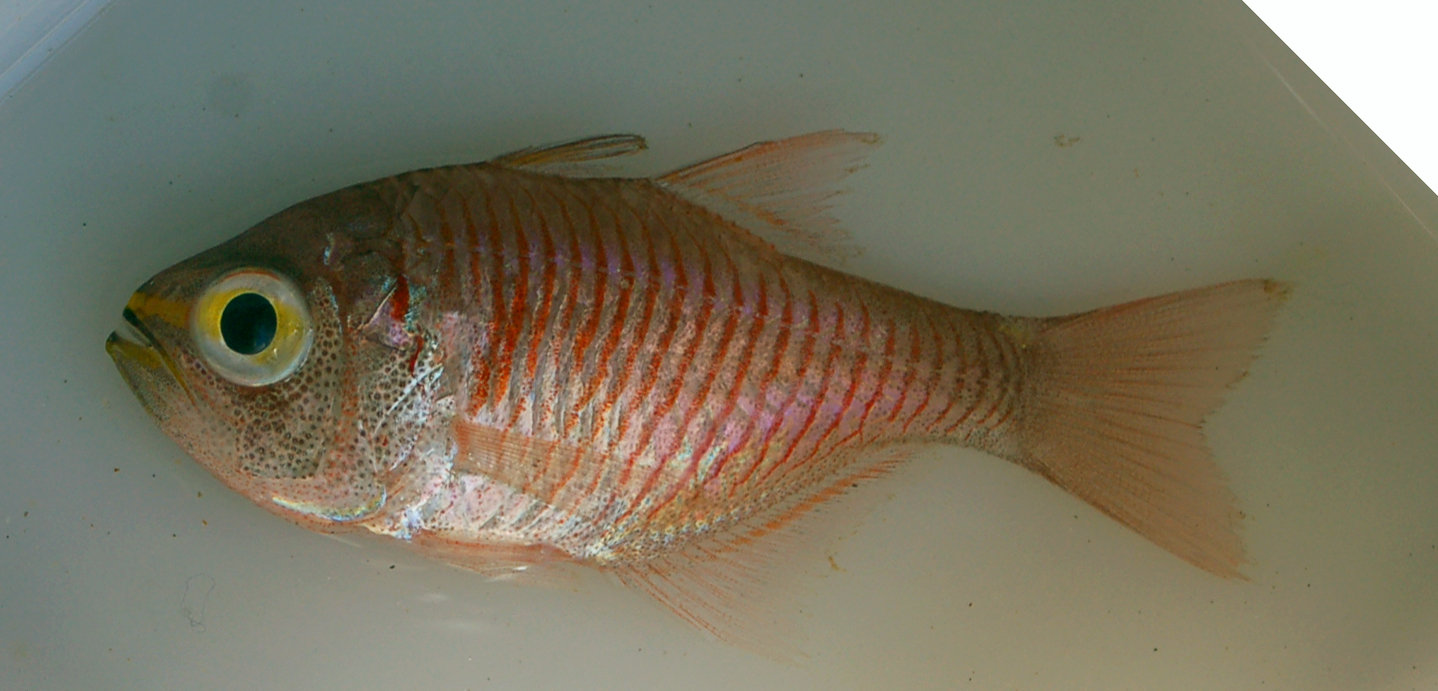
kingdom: Animalia
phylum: Chordata
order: Perciformes
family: Apogonidae
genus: Taeniamia
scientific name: Taeniamia fucata
